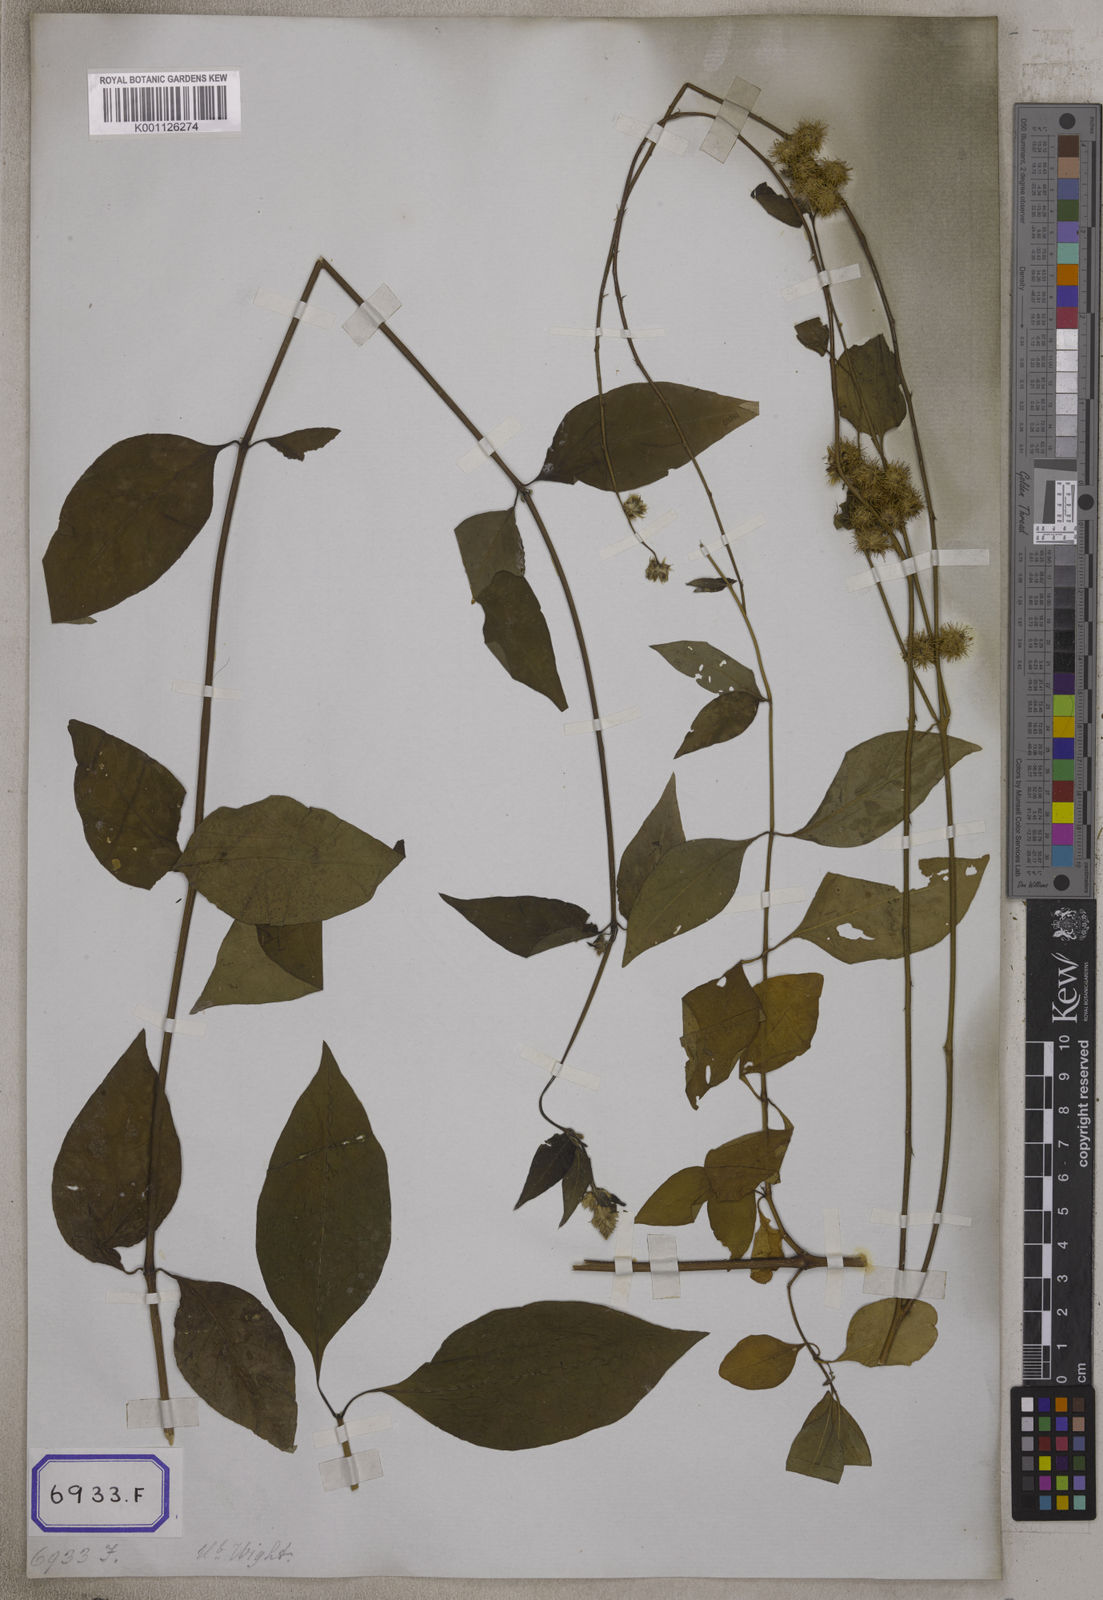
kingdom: Plantae
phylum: Tracheophyta
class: Magnoliopsida
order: Caryophyllales
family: Amaranthaceae
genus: Pupalia
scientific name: Pupalia lappacea
